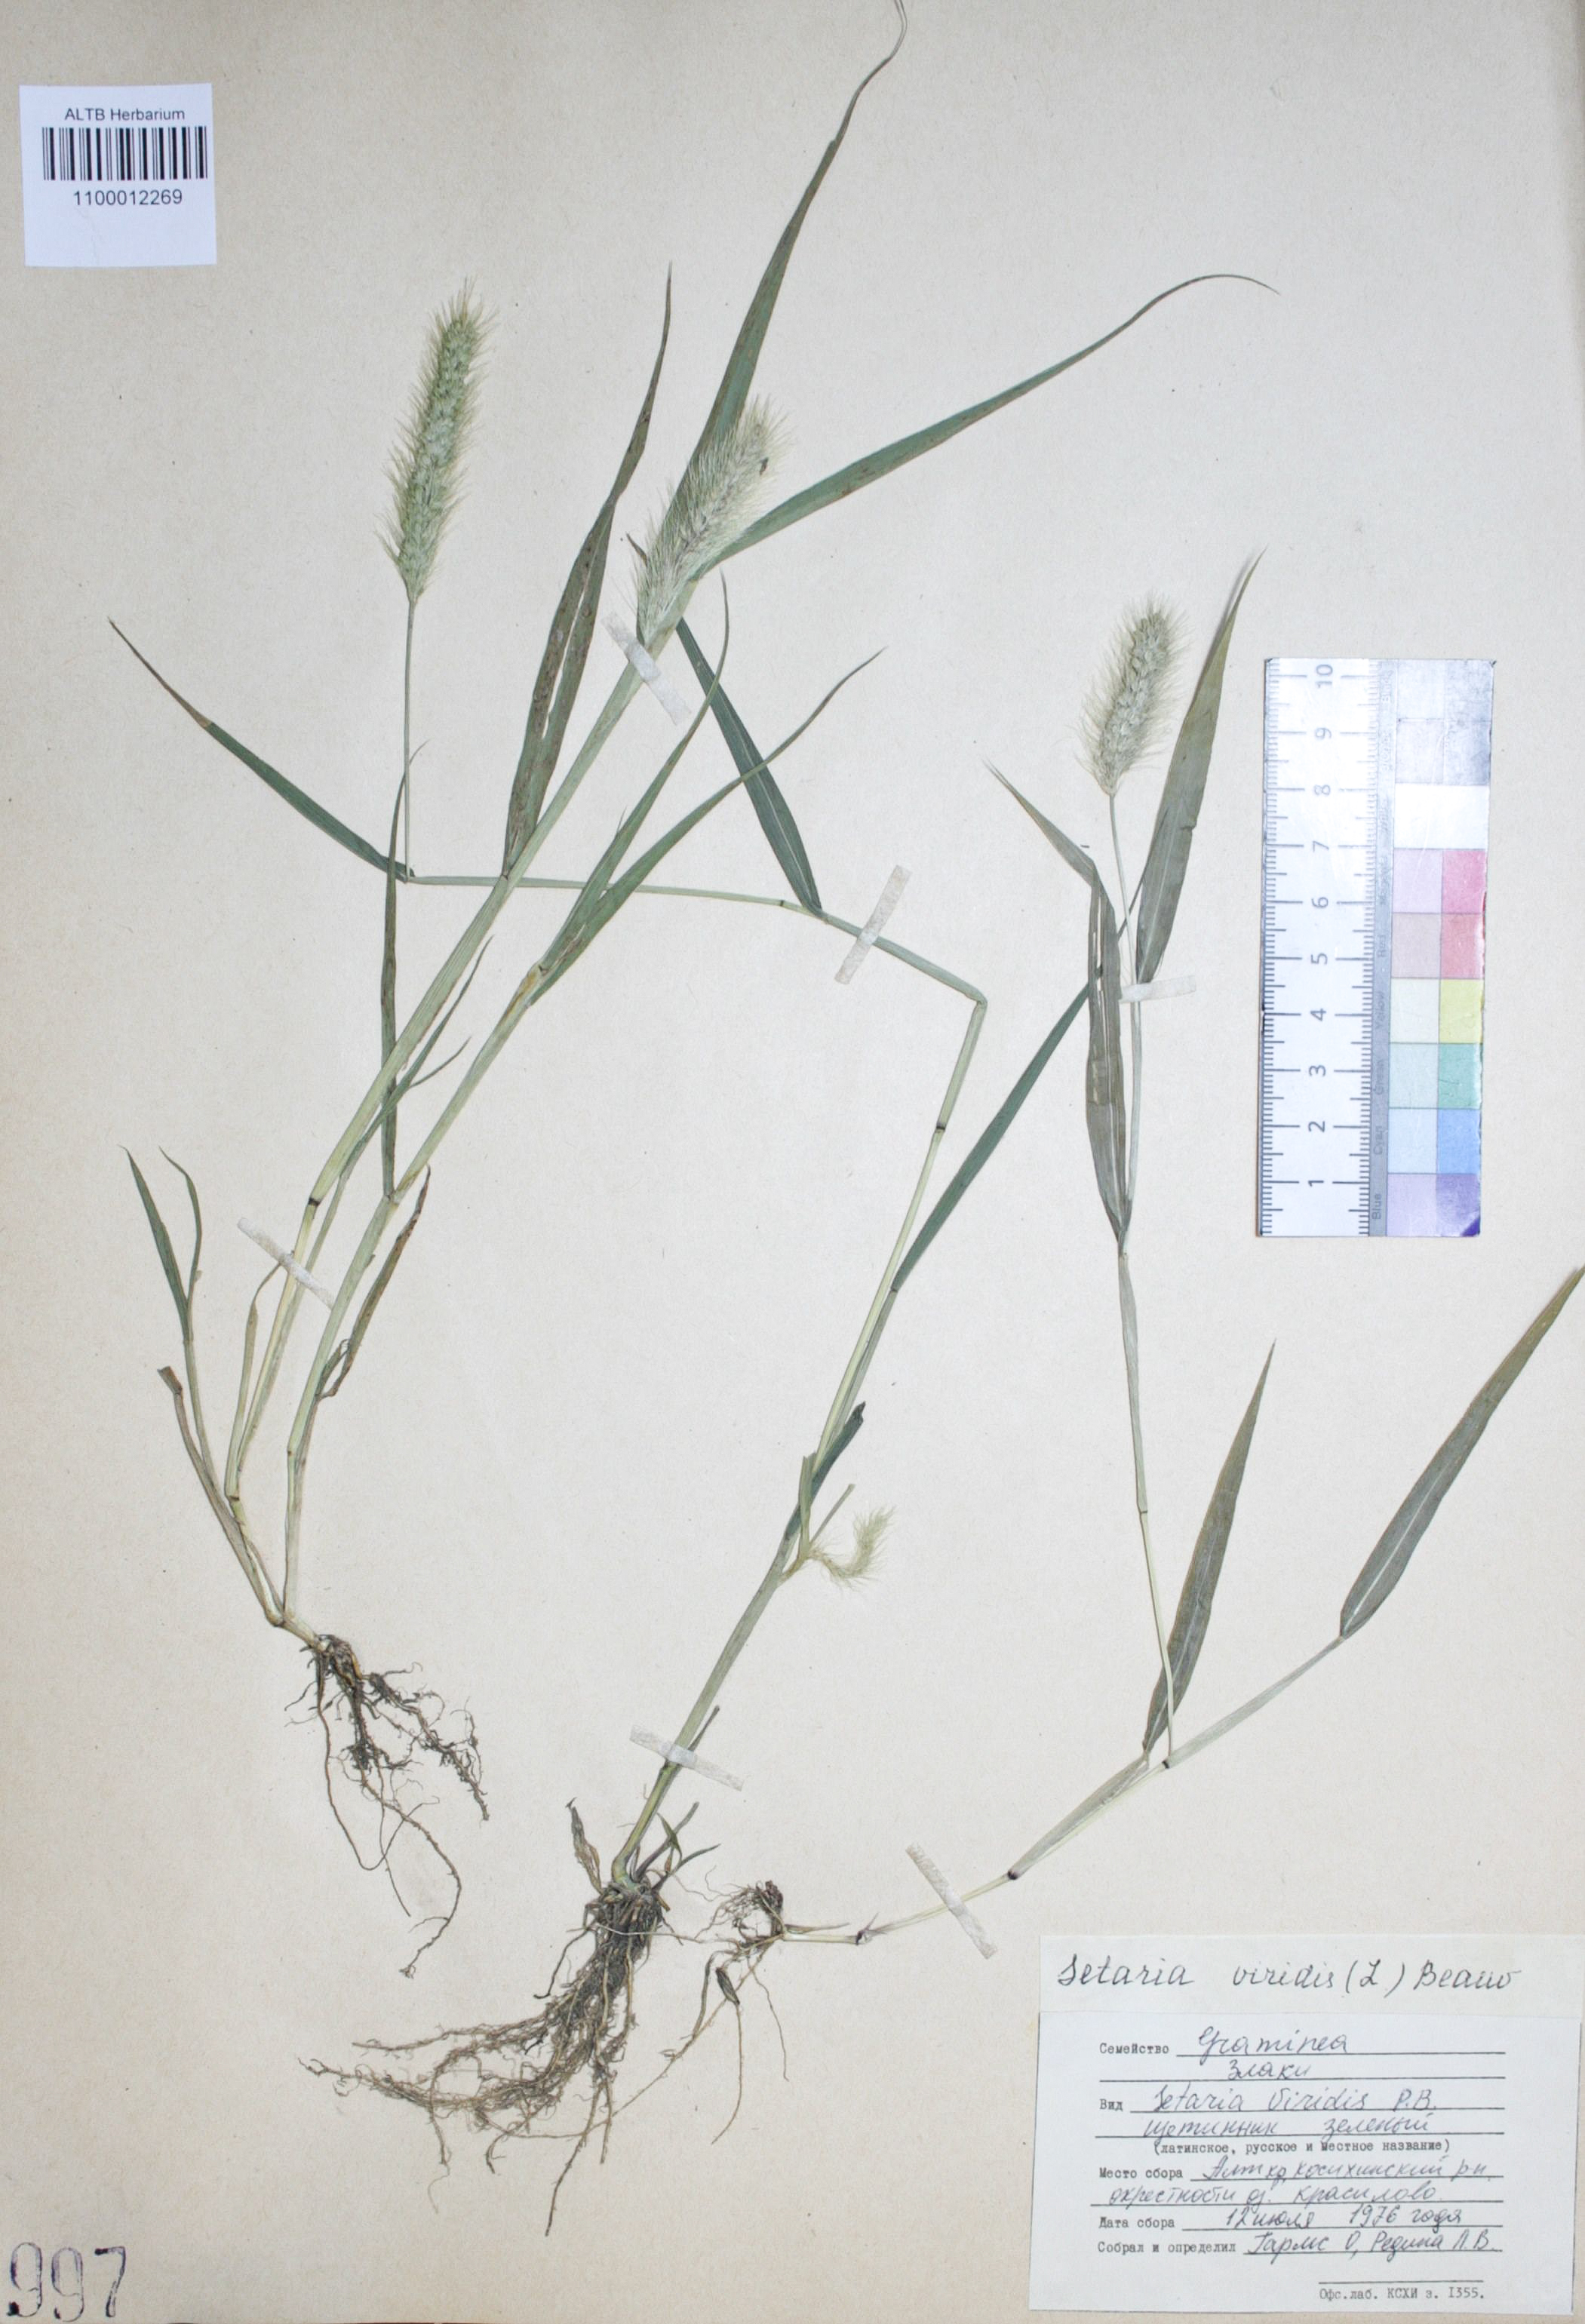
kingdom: Plantae
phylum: Tracheophyta
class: Liliopsida
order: Poales
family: Poaceae
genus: Setaria
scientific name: Setaria viridis
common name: Green bristlegrass
